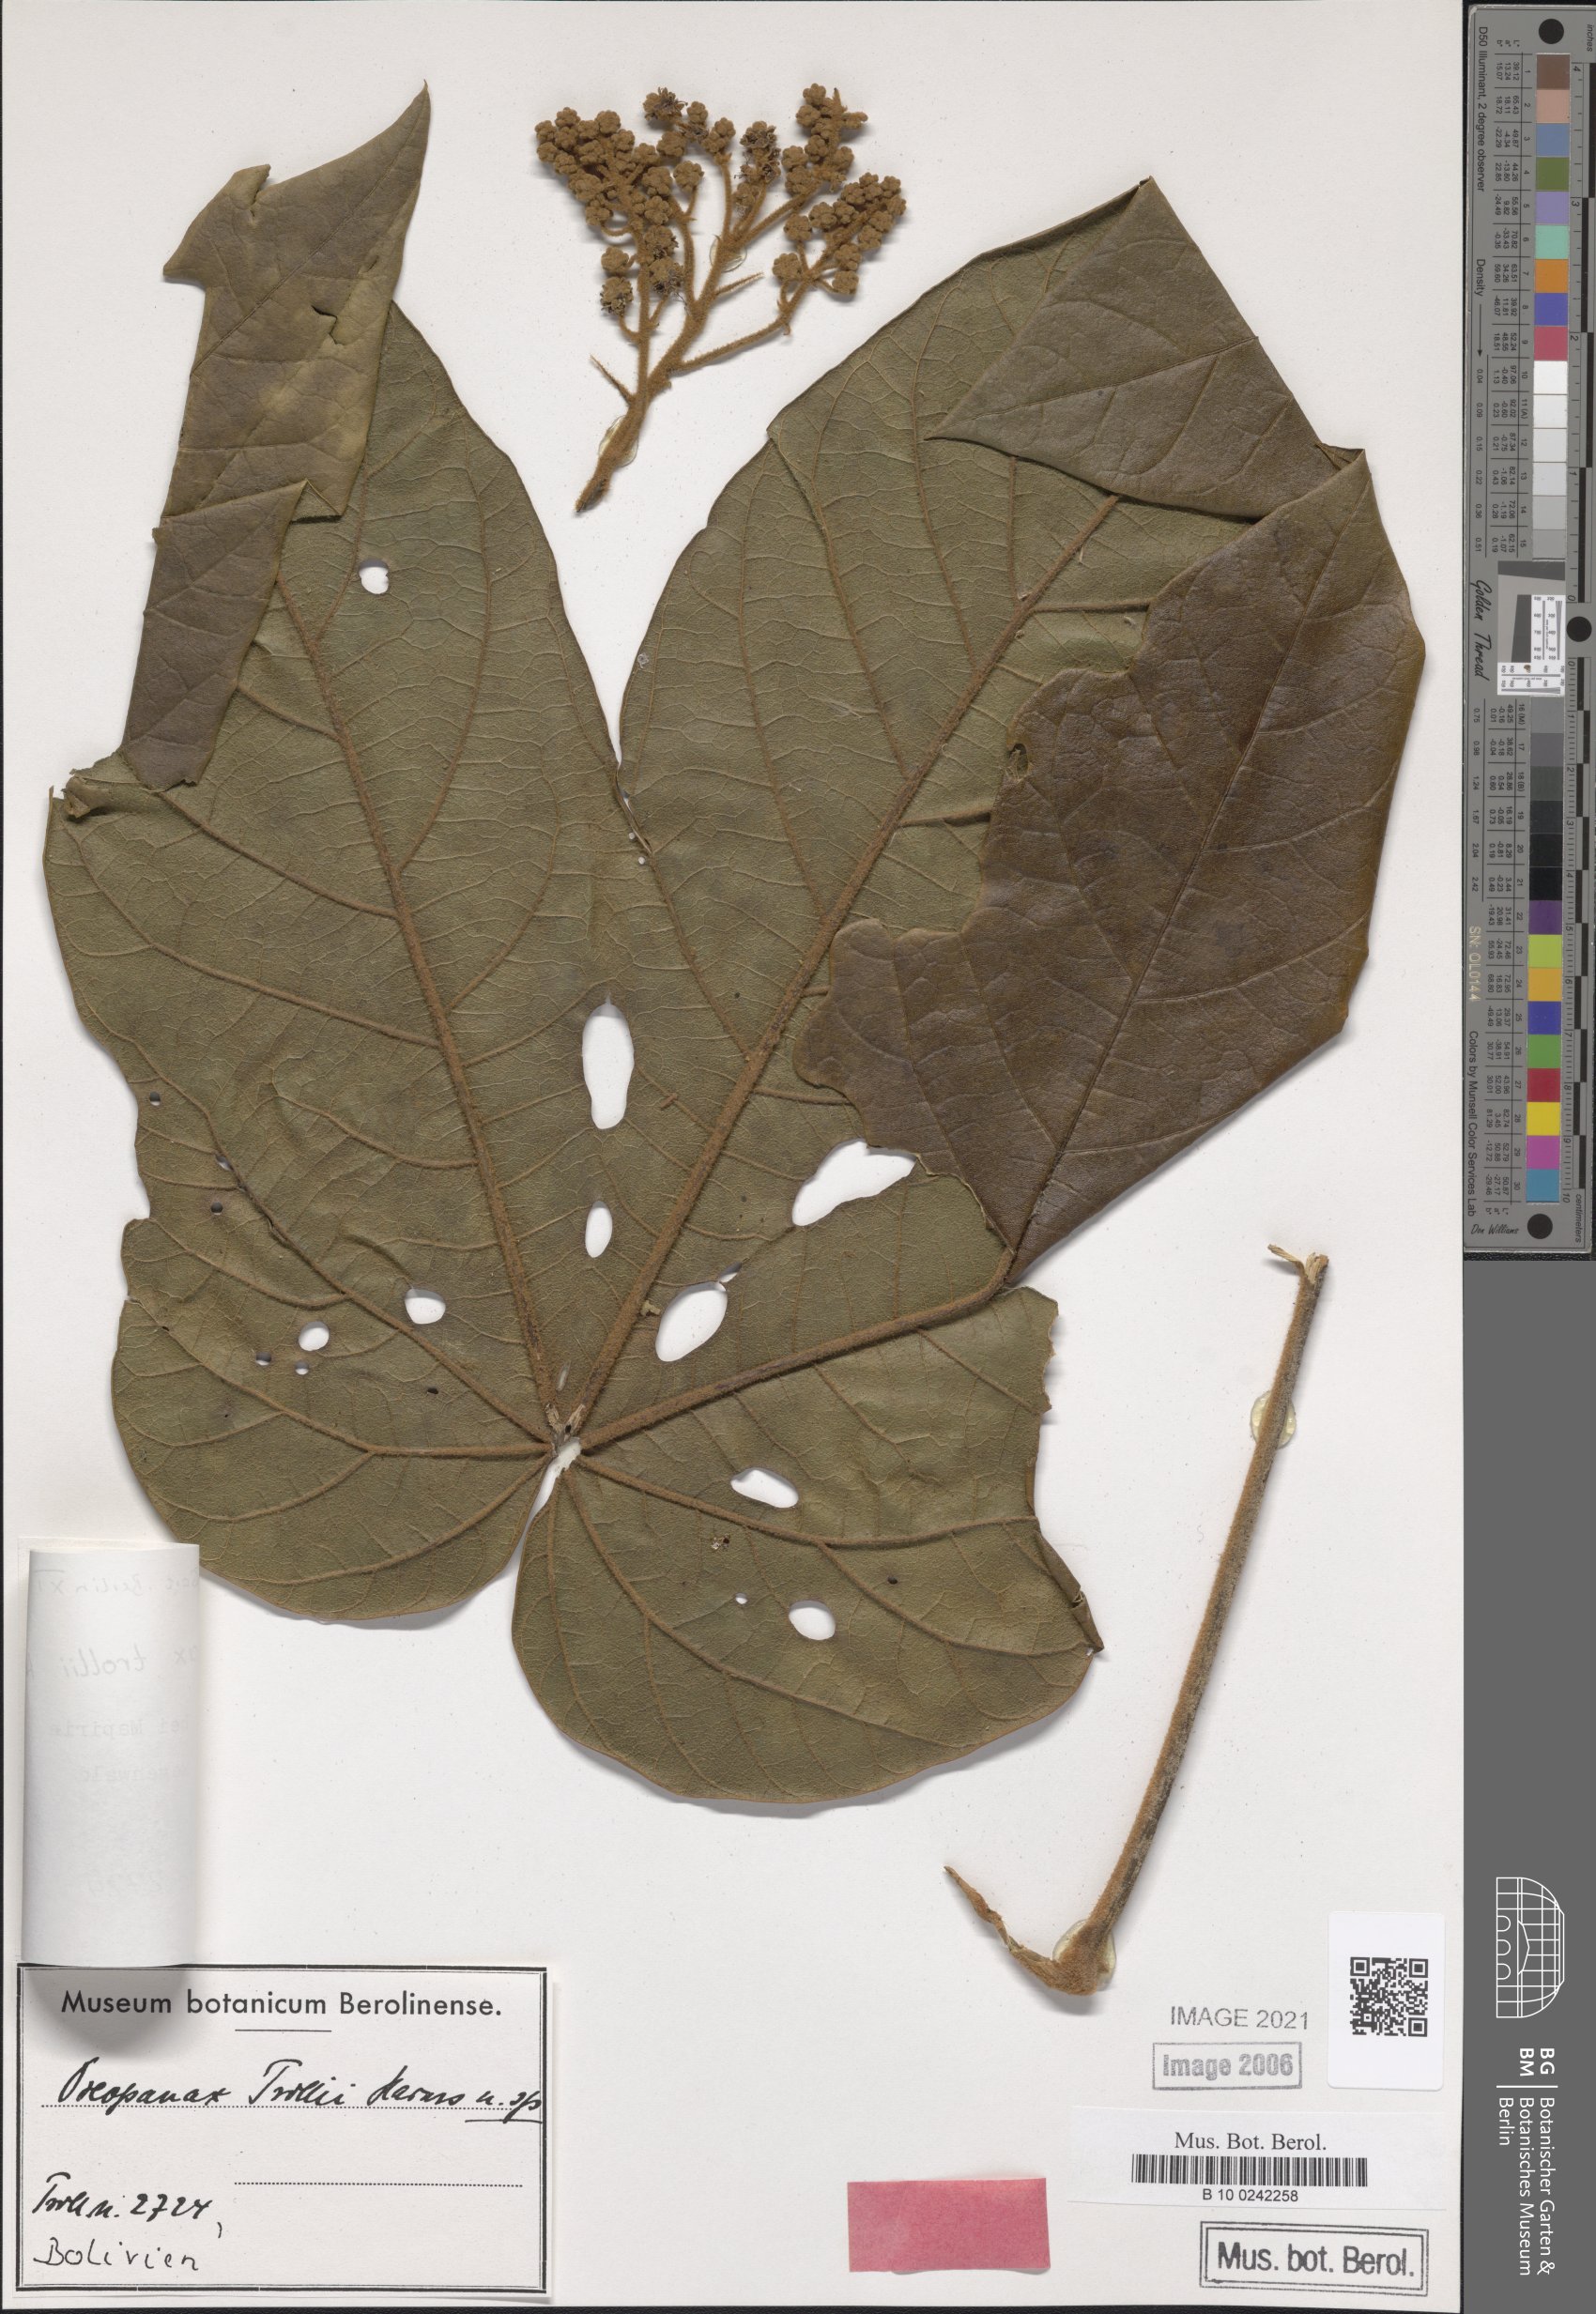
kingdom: Plantae
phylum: Tracheophyta
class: Magnoliopsida
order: Apiales
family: Araliaceae
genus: Oreopanax
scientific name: Oreopanax trollii
